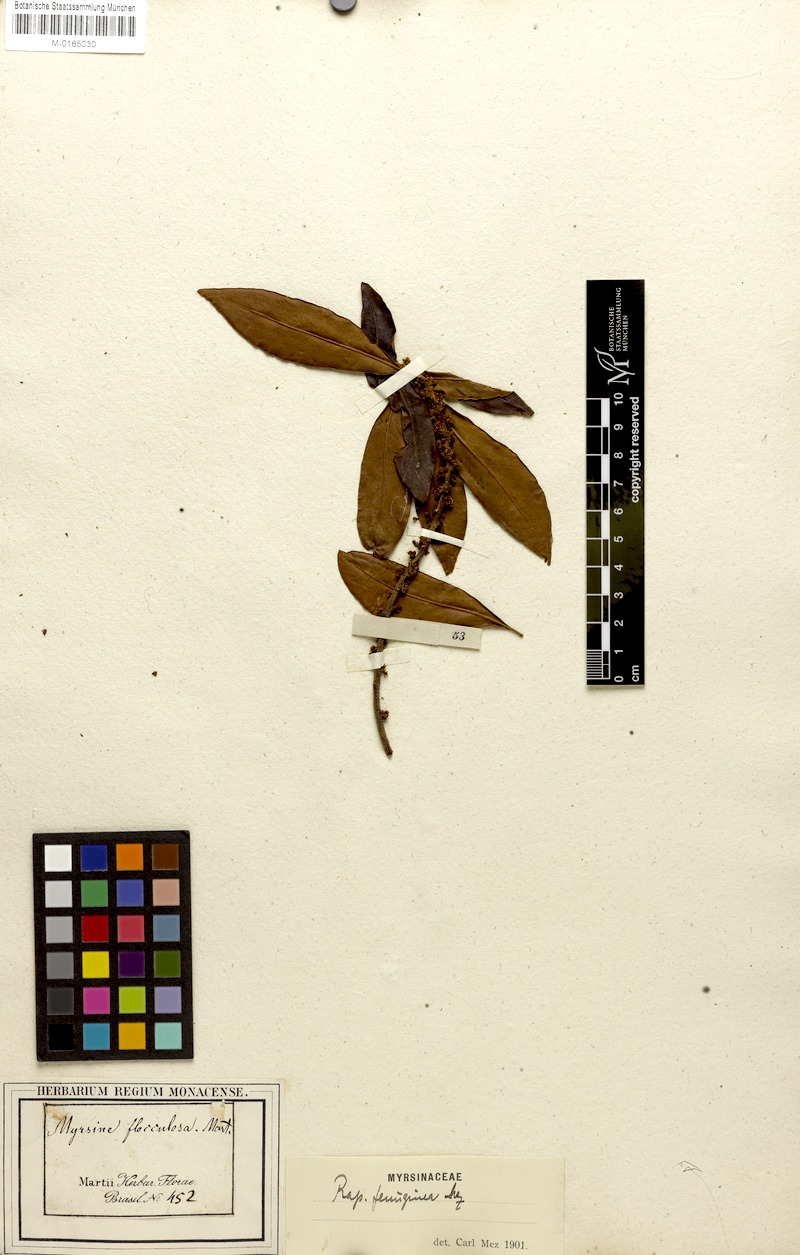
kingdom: Plantae
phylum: Tracheophyta
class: Magnoliopsida
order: Ericales
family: Primulaceae
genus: Myrsine
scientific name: Myrsine coriacea
